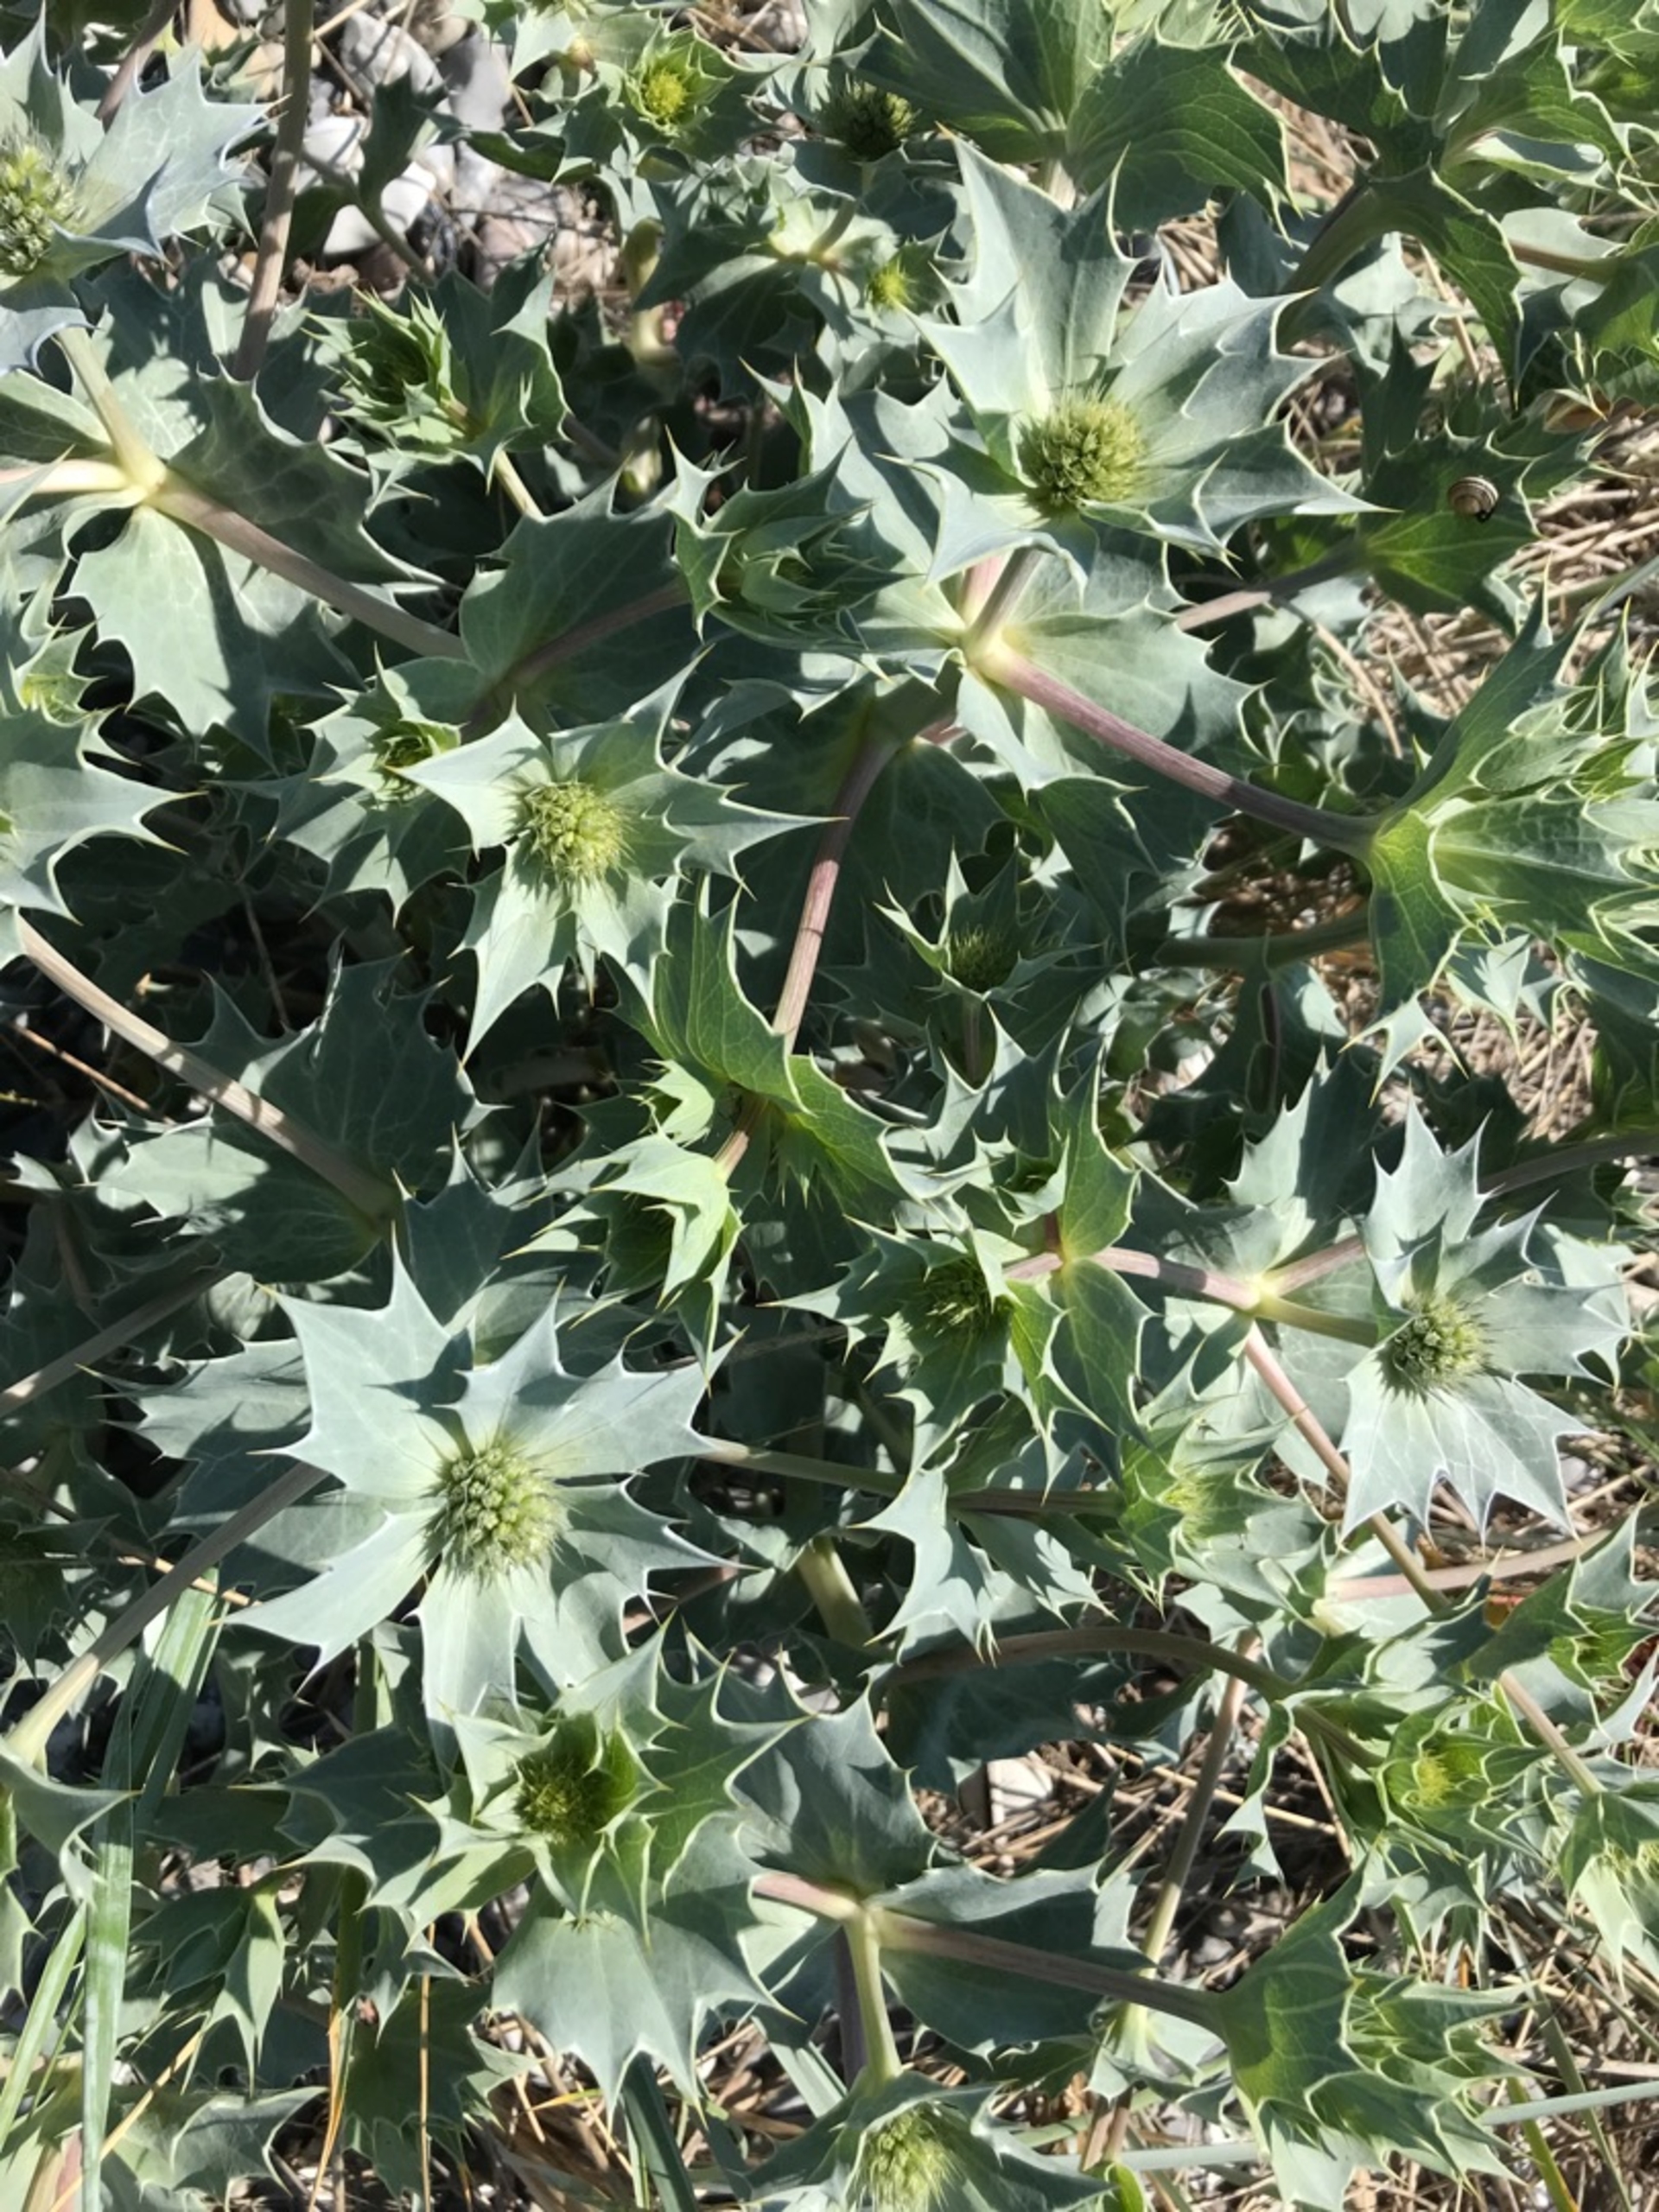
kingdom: Plantae
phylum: Tracheophyta
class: Magnoliopsida
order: Apiales
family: Apiaceae
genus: Eryngium
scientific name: Eryngium maritimum
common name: Strand-mandstro
